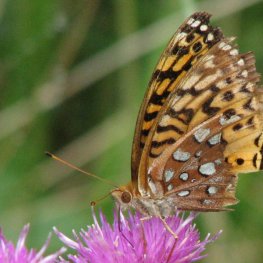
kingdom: Animalia
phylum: Arthropoda
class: Insecta
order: Lepidoptera
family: Nymphalidae
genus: Speyeria
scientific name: Speyeria cybele
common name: Great Spangled Fritillary
